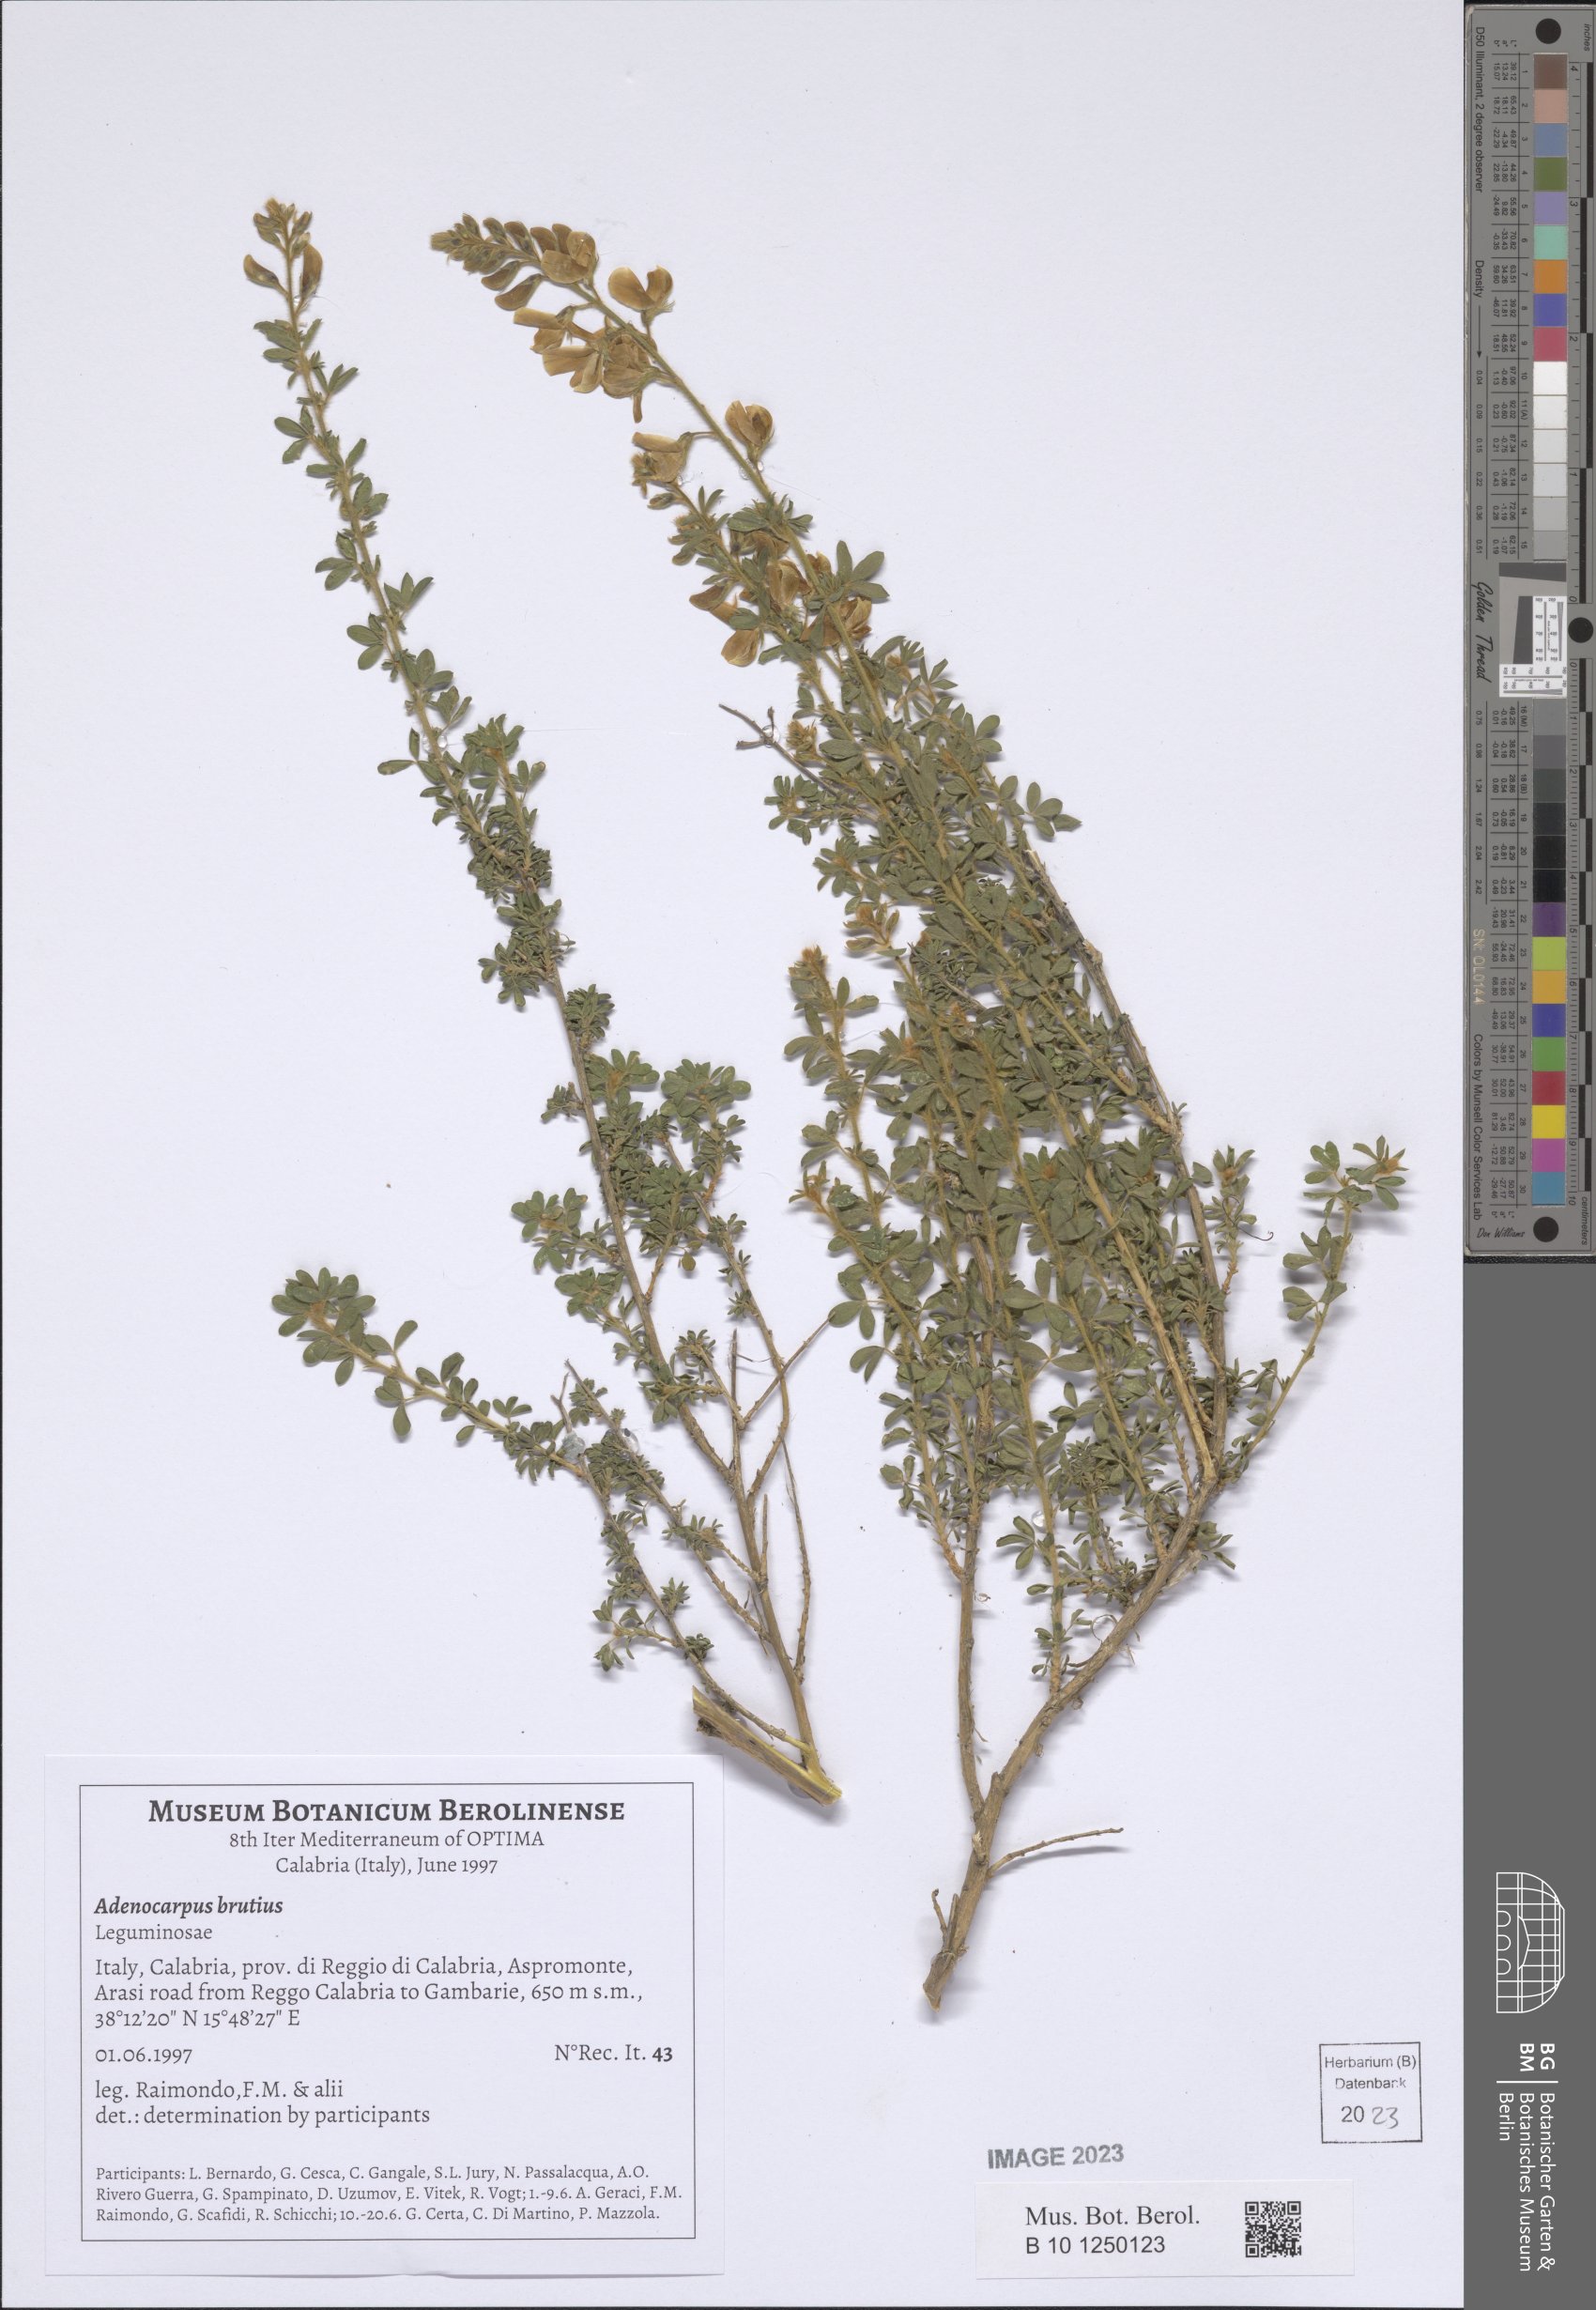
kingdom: Plantae
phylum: Tracheophyta
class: Magnoliopsida
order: Fabales
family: Fabaceae
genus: Adenocarpus
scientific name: Adenocarpus complicatus
